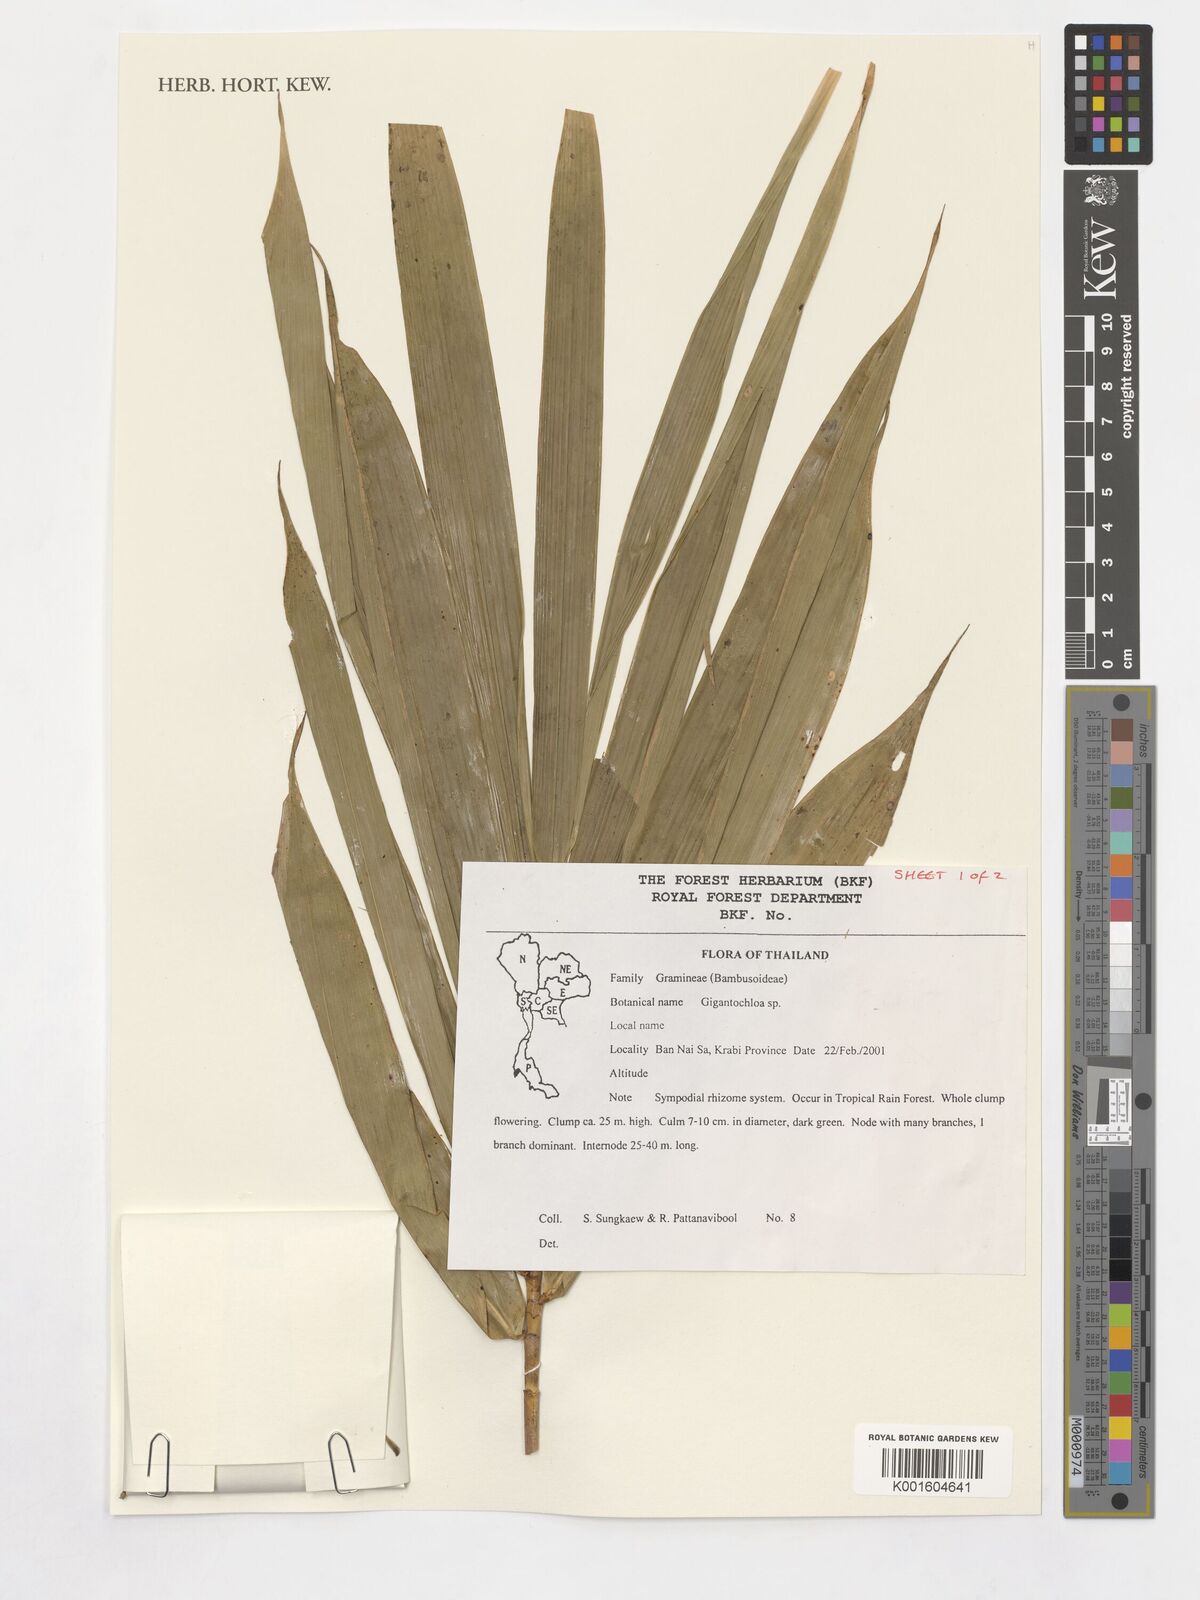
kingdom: Plantae
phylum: Tracheophyta
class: Liliopsida
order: Poales
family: Poaceae
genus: Gigantochloa
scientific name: Gigantochloa
